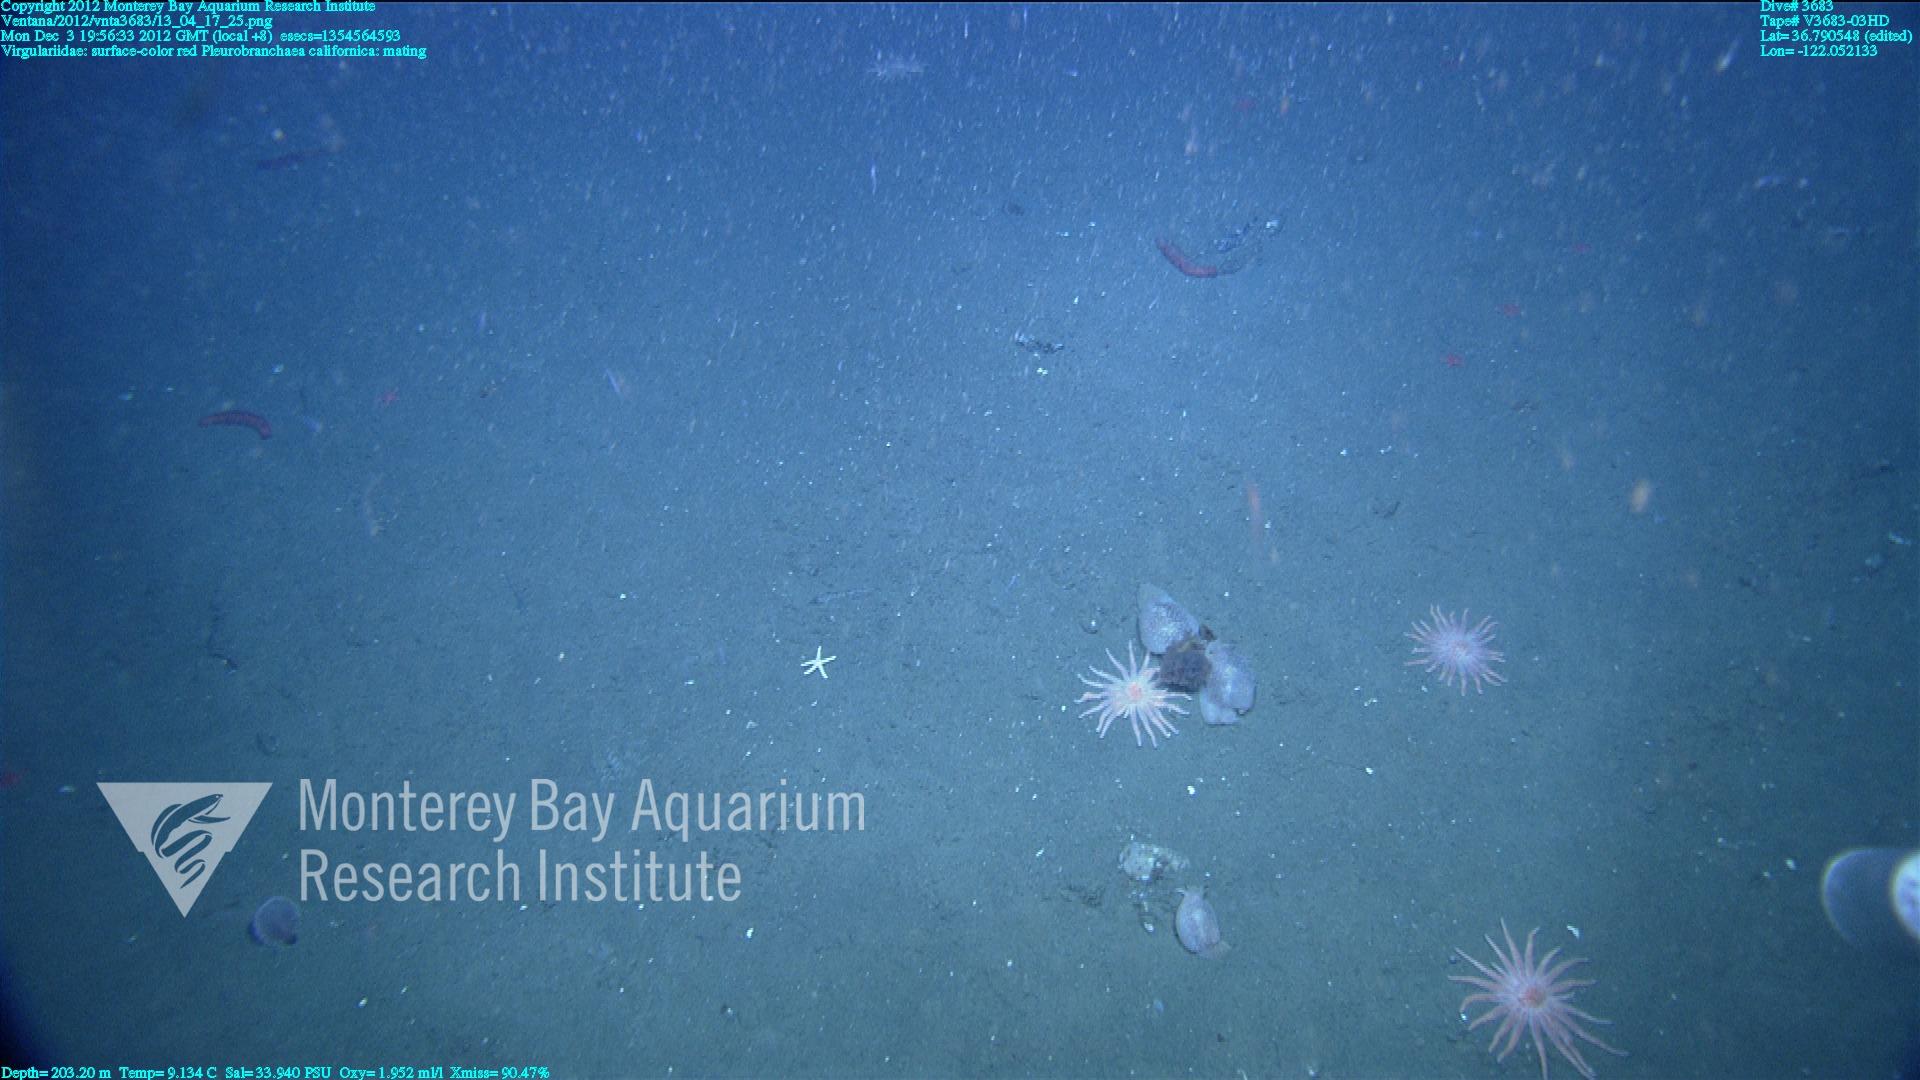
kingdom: Animalia
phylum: Cnidaria
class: Anthozoa
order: Scleralcyonacea
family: Virgulariidae
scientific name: Virgulariidae
